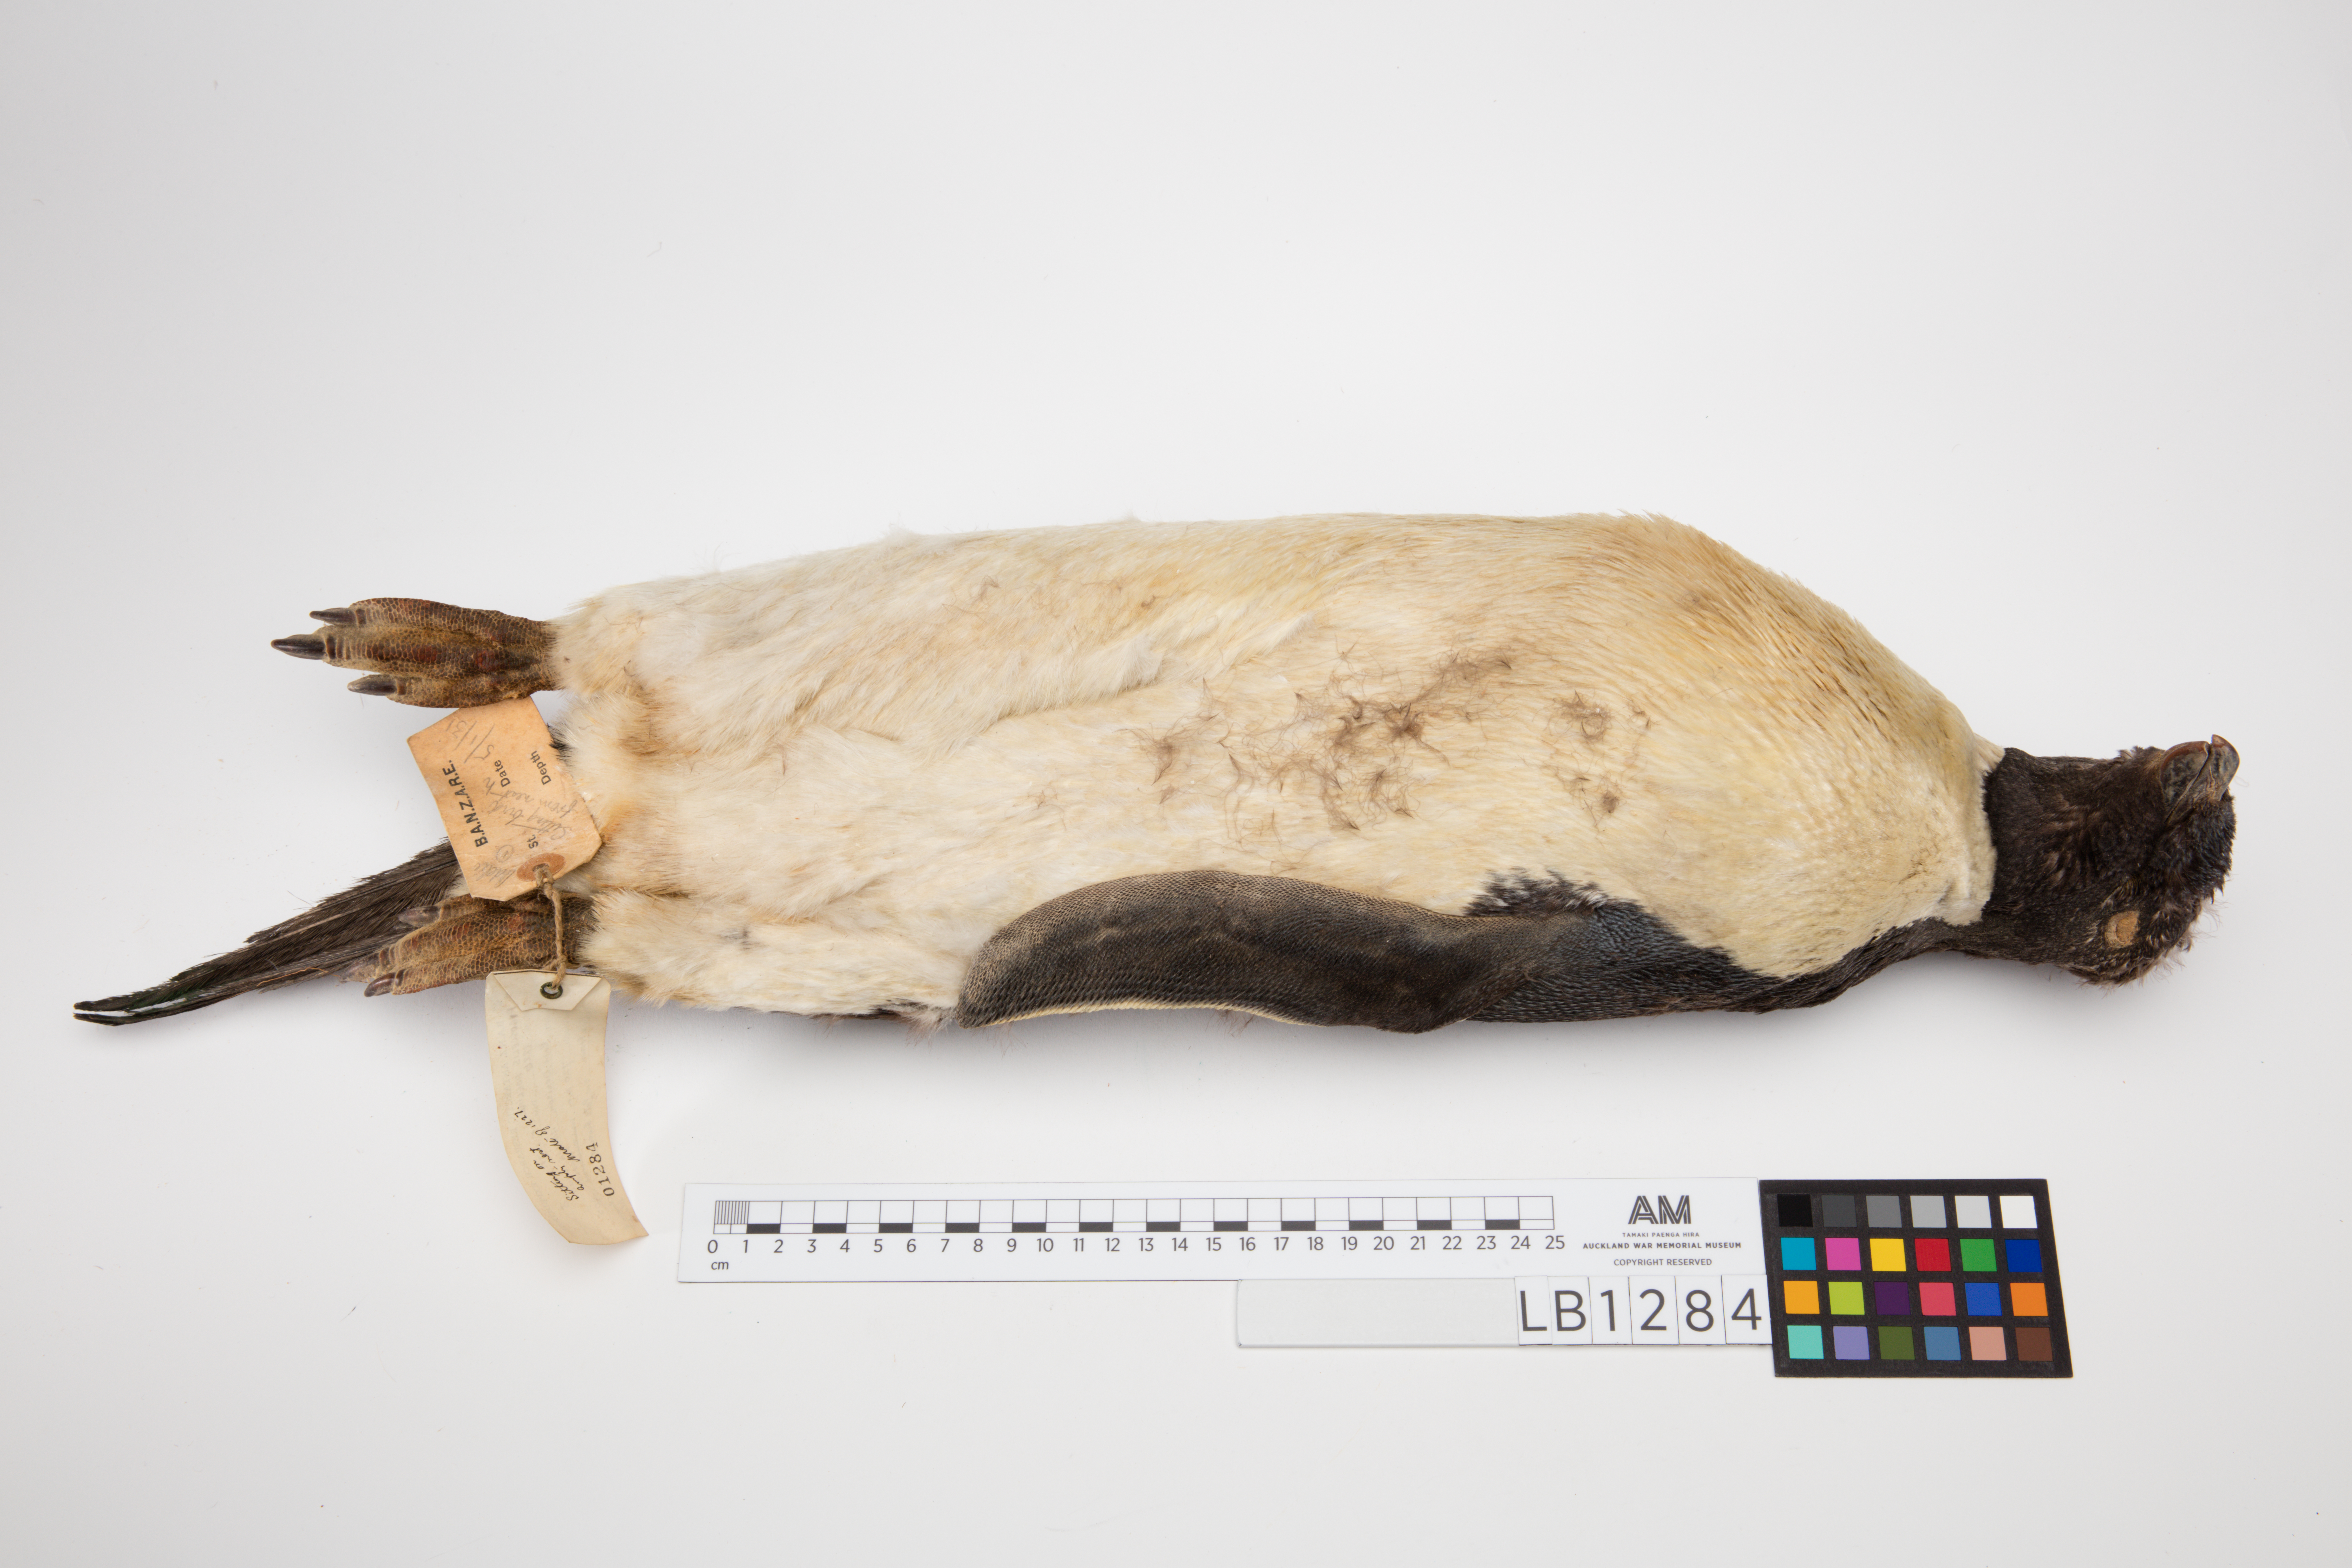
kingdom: Animalia
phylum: Chordata
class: Aves
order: Sphenisciformes
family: Spheniscidae
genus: Pygoscelis
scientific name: Pygoscelis adeliae
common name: Adelie penguin
